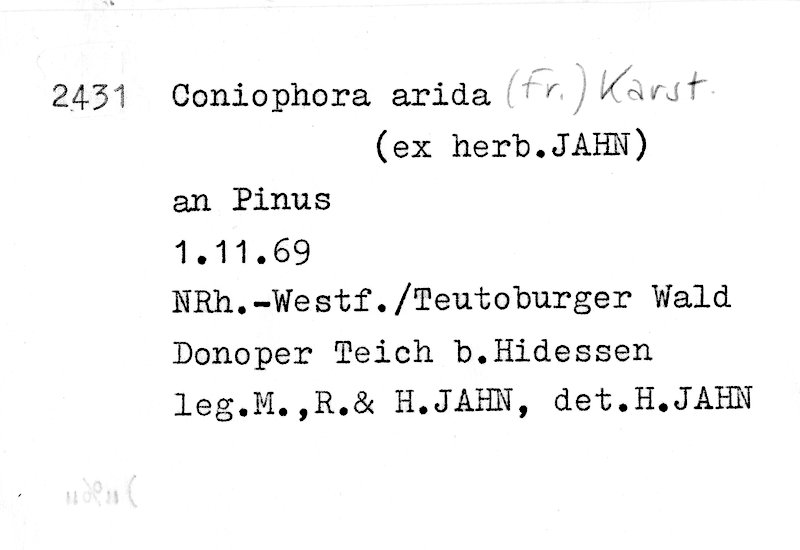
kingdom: Plantae
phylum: Tracheophyta
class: Pinopsida
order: Pinales
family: Pinaceae
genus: Pinus
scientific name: Pinus
